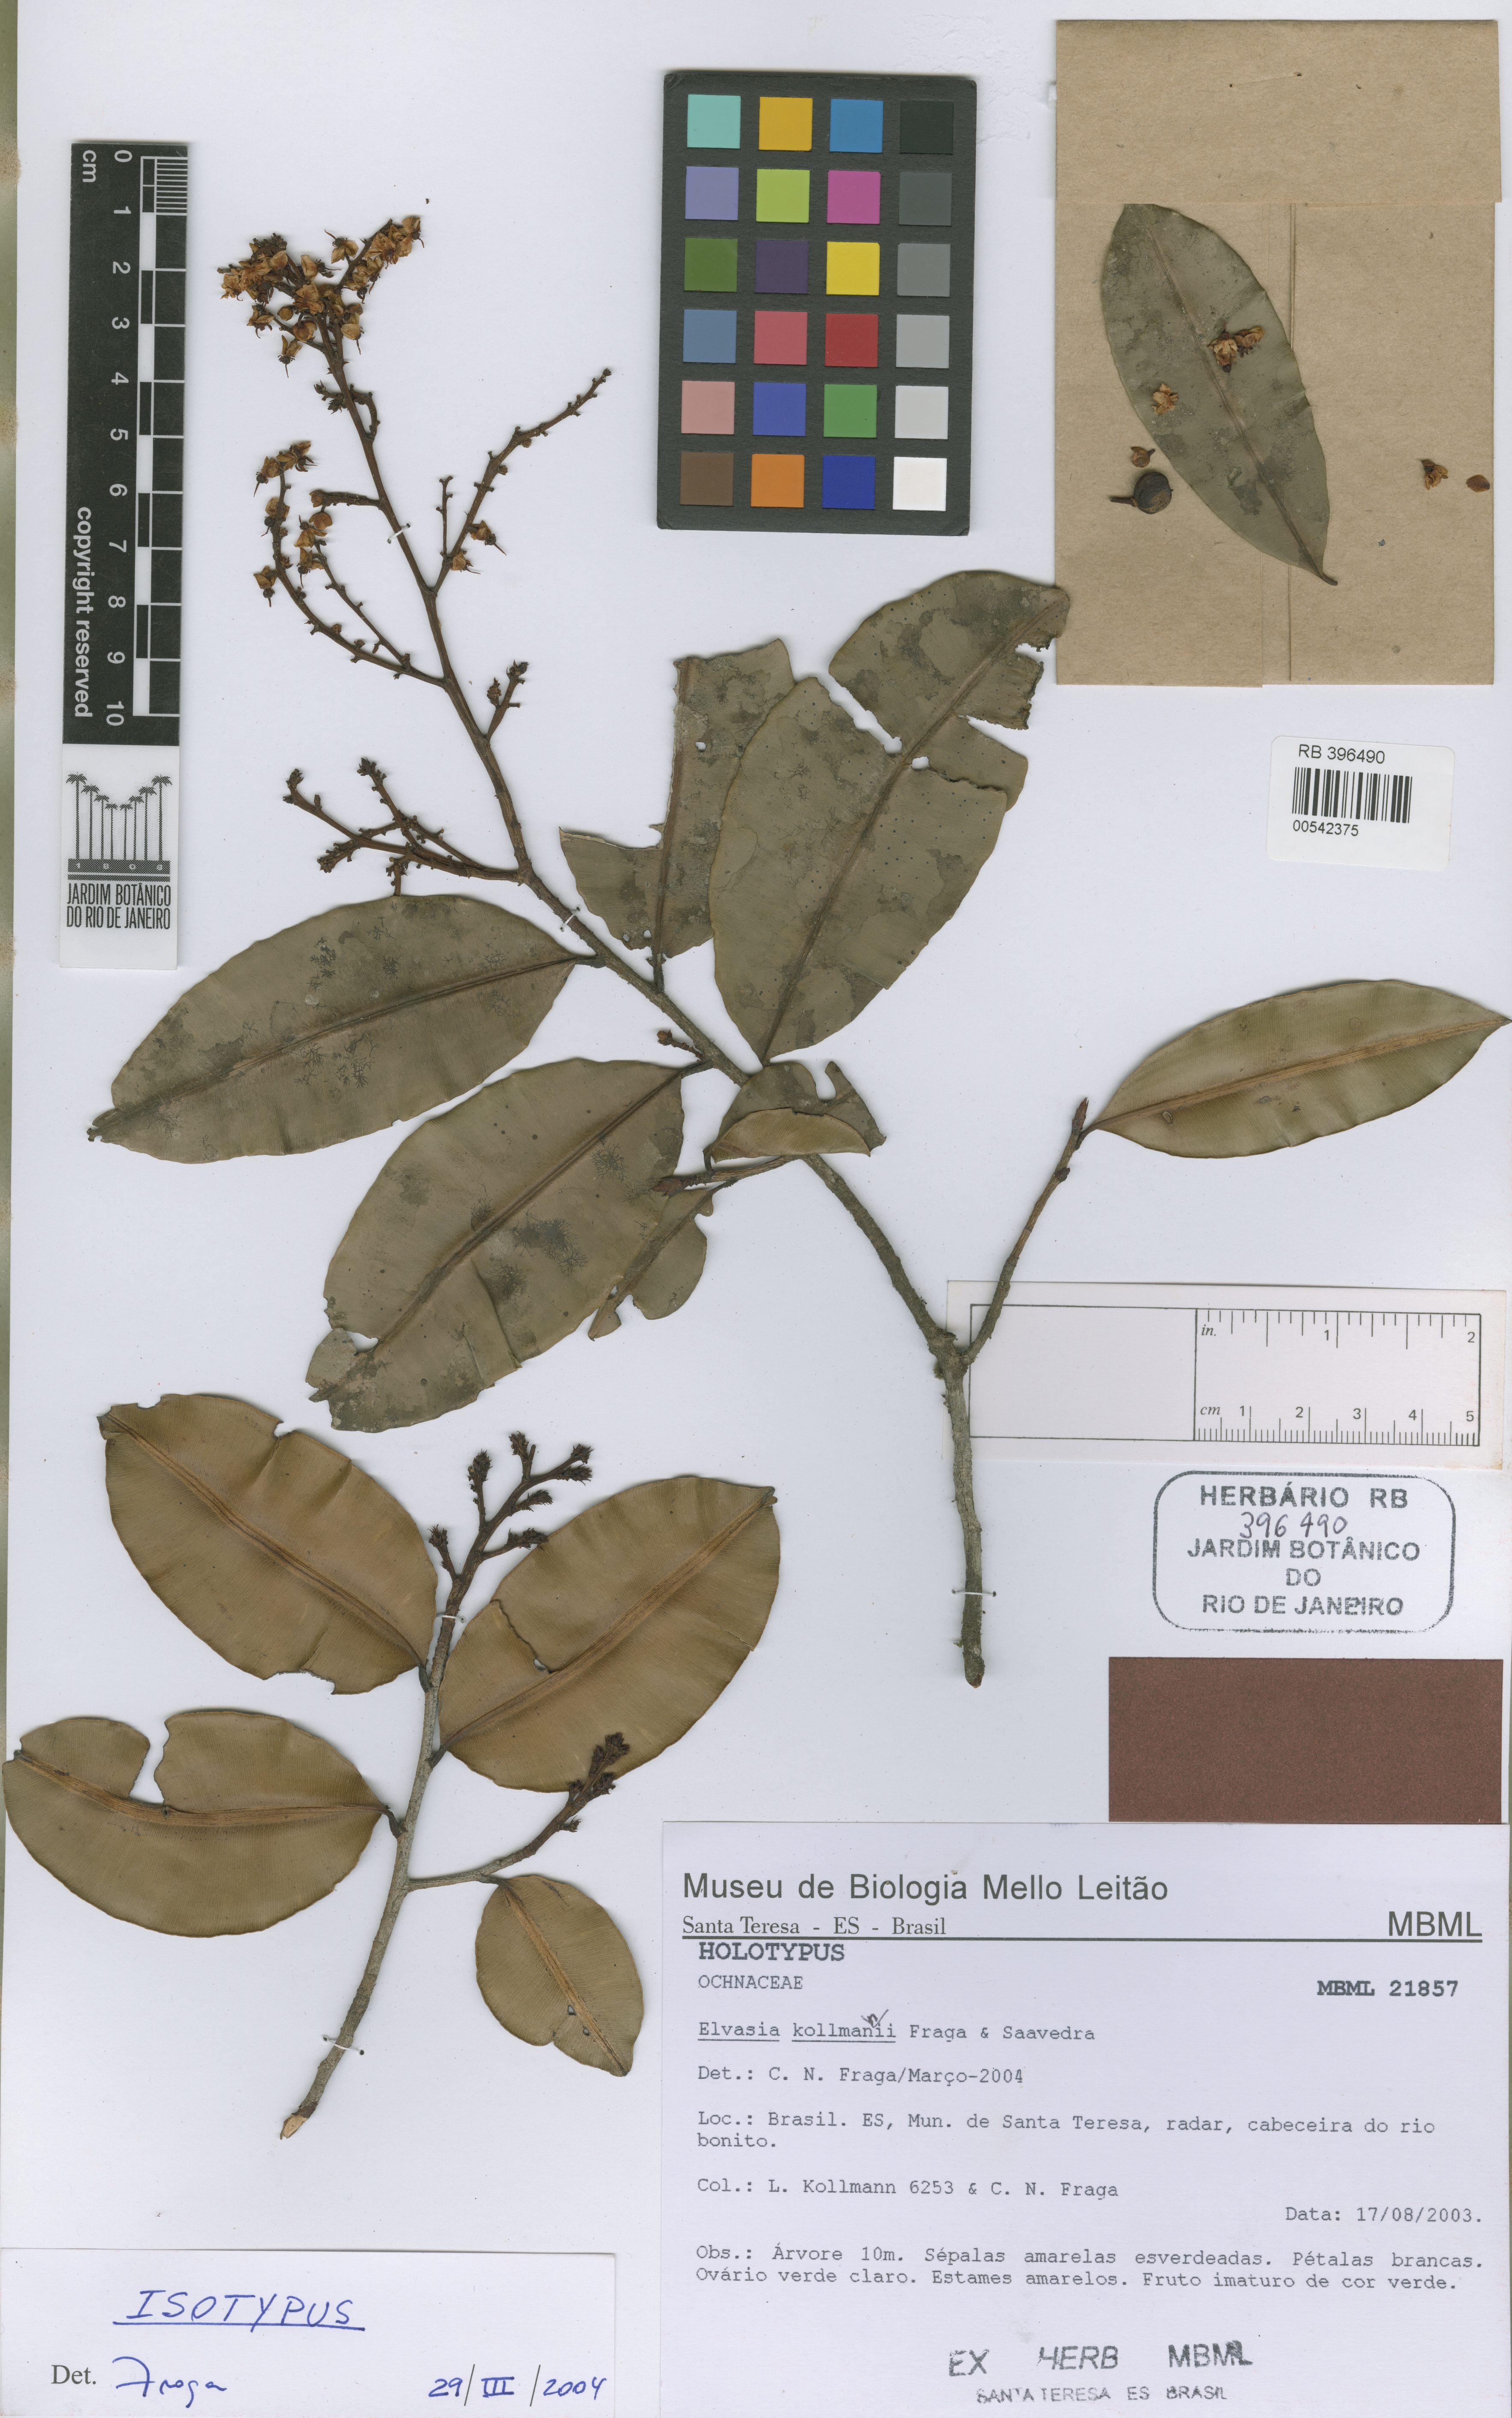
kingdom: Plantae
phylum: Tracheophyta
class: Magnoliopsida
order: Malpighiales
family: Ochnaceae
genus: Elvasia
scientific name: Elvasia kollmannii
